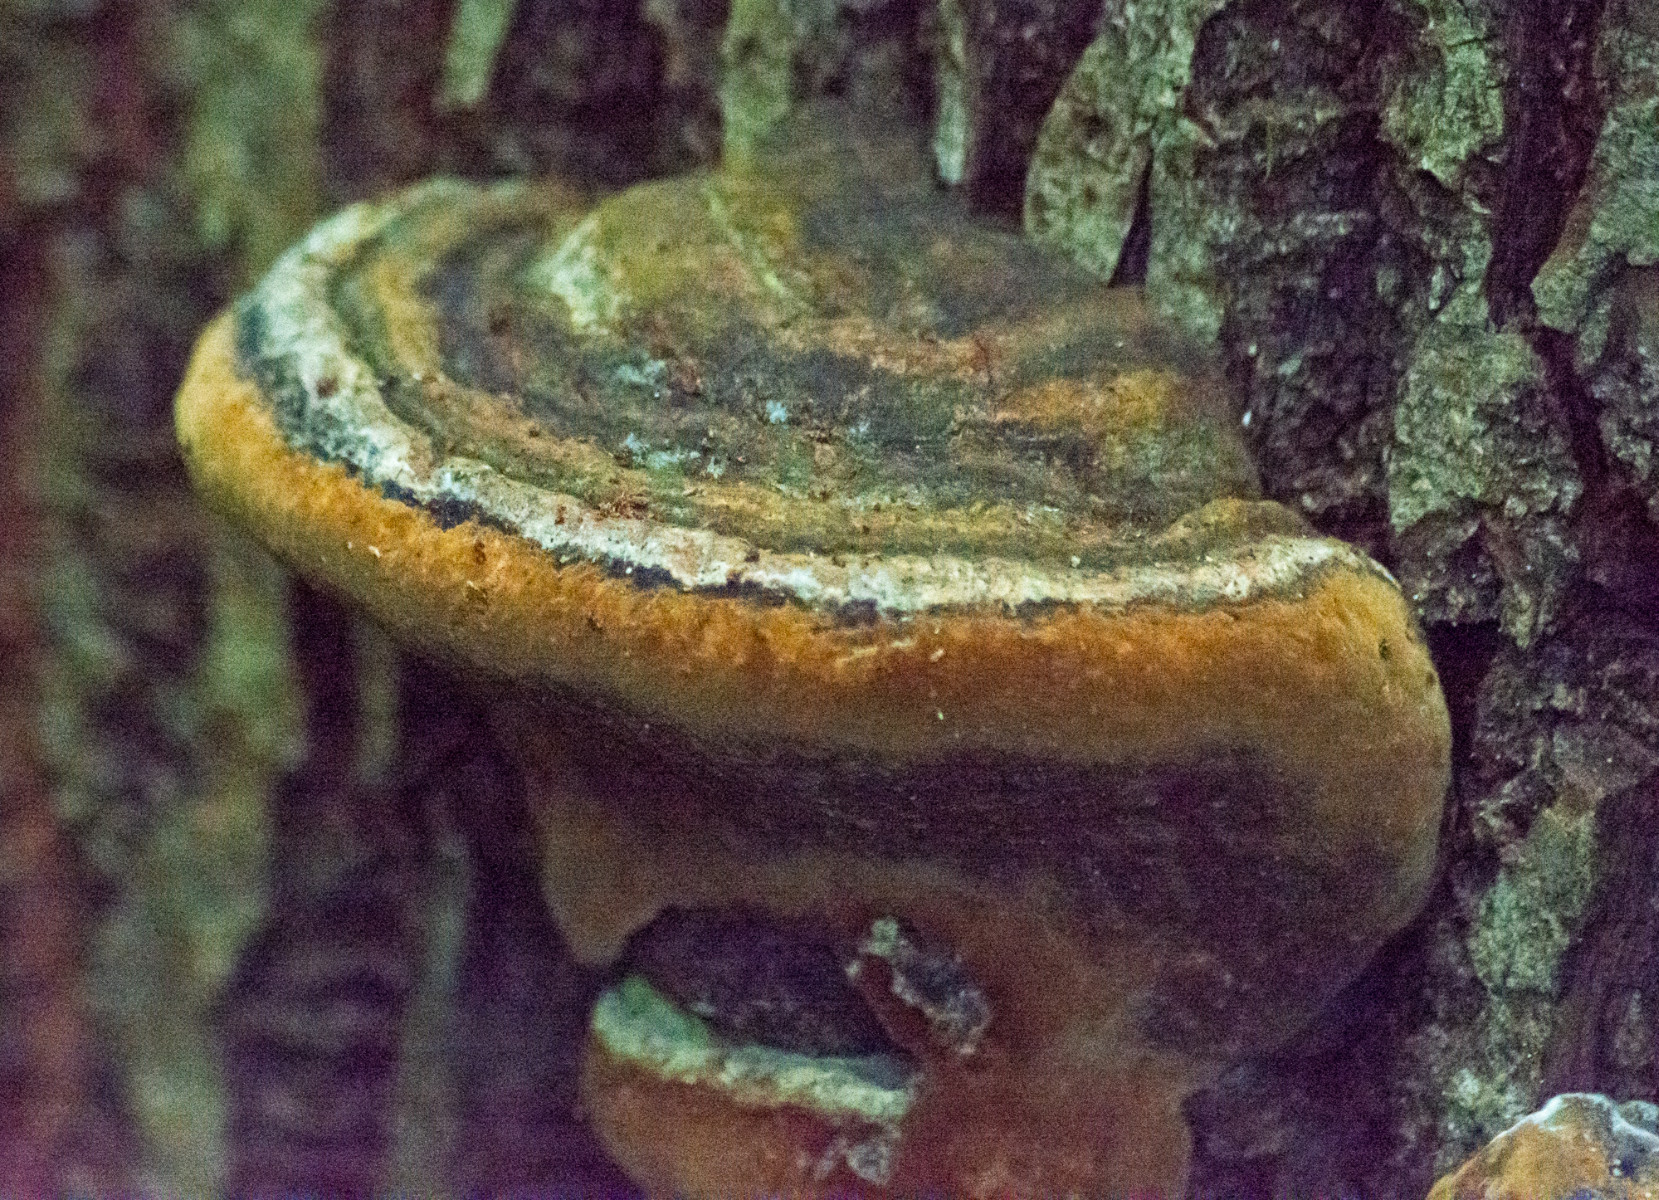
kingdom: Fungi
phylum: Basidiomycota
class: Agaricomycetes
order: Hymenochaetales
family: Hymenochaetaceae
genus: Phellinus
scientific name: Phellinus
